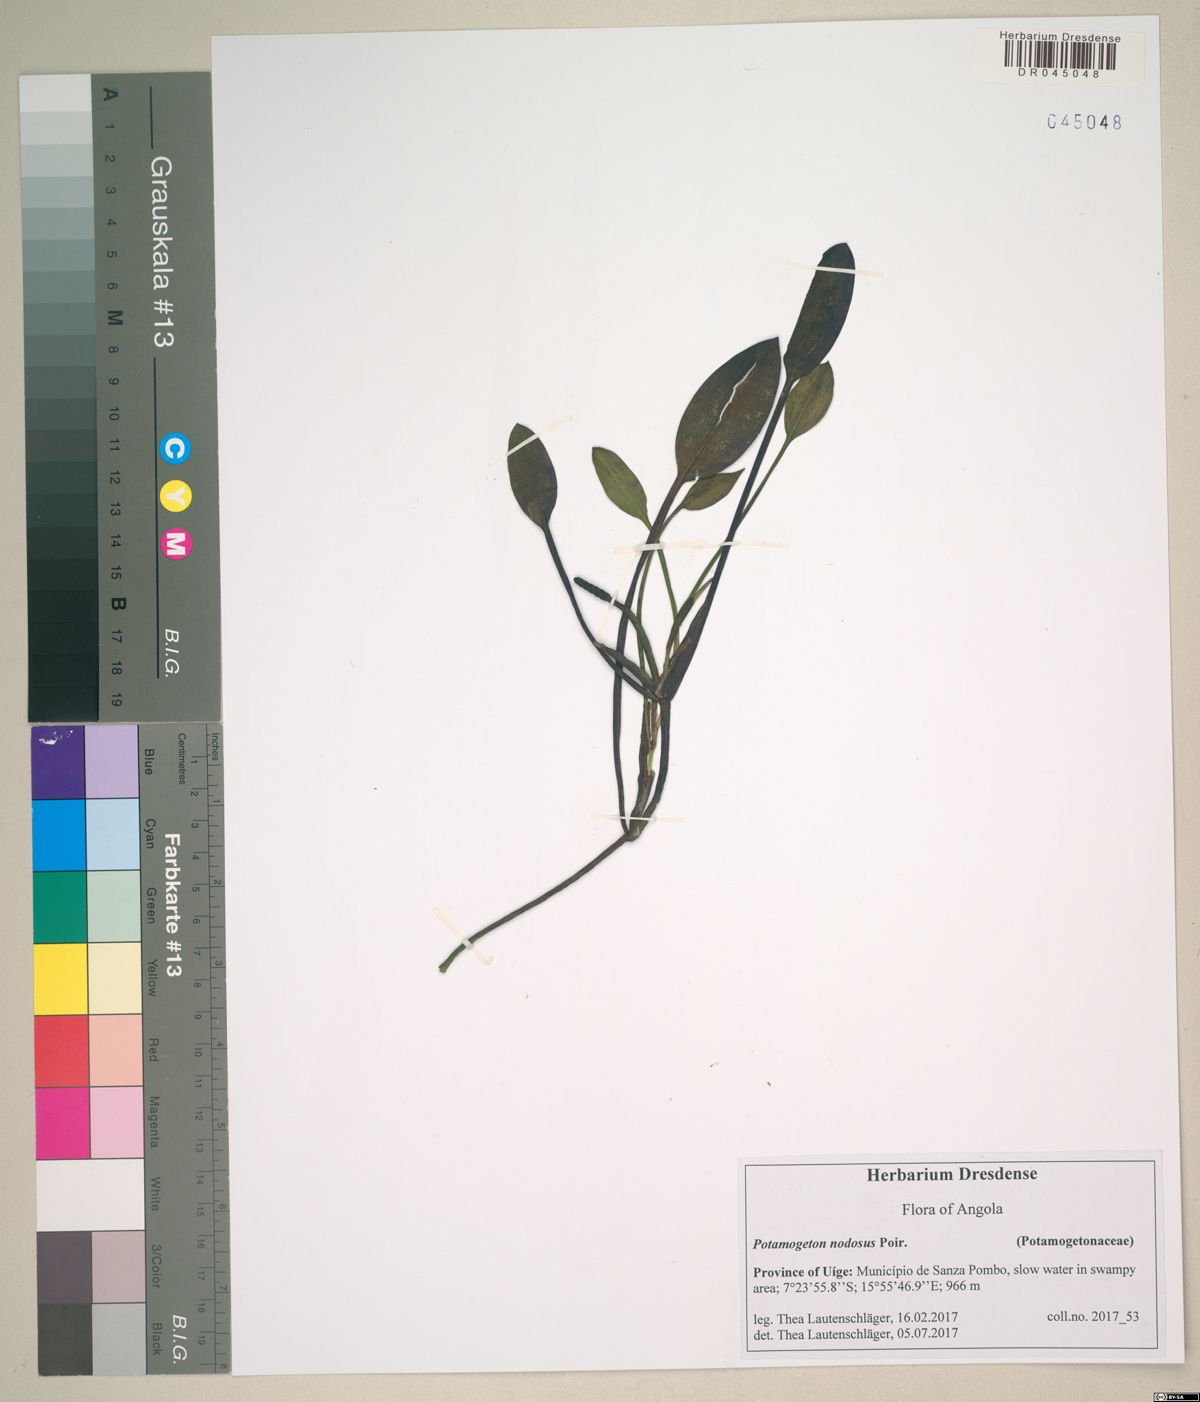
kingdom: Plantae
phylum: Tracheophyta
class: Liliopsida
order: Alismatales
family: Potamogetonaceae
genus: Potamogeton
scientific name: Potamogeton nodosus
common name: Loddon pondweed
